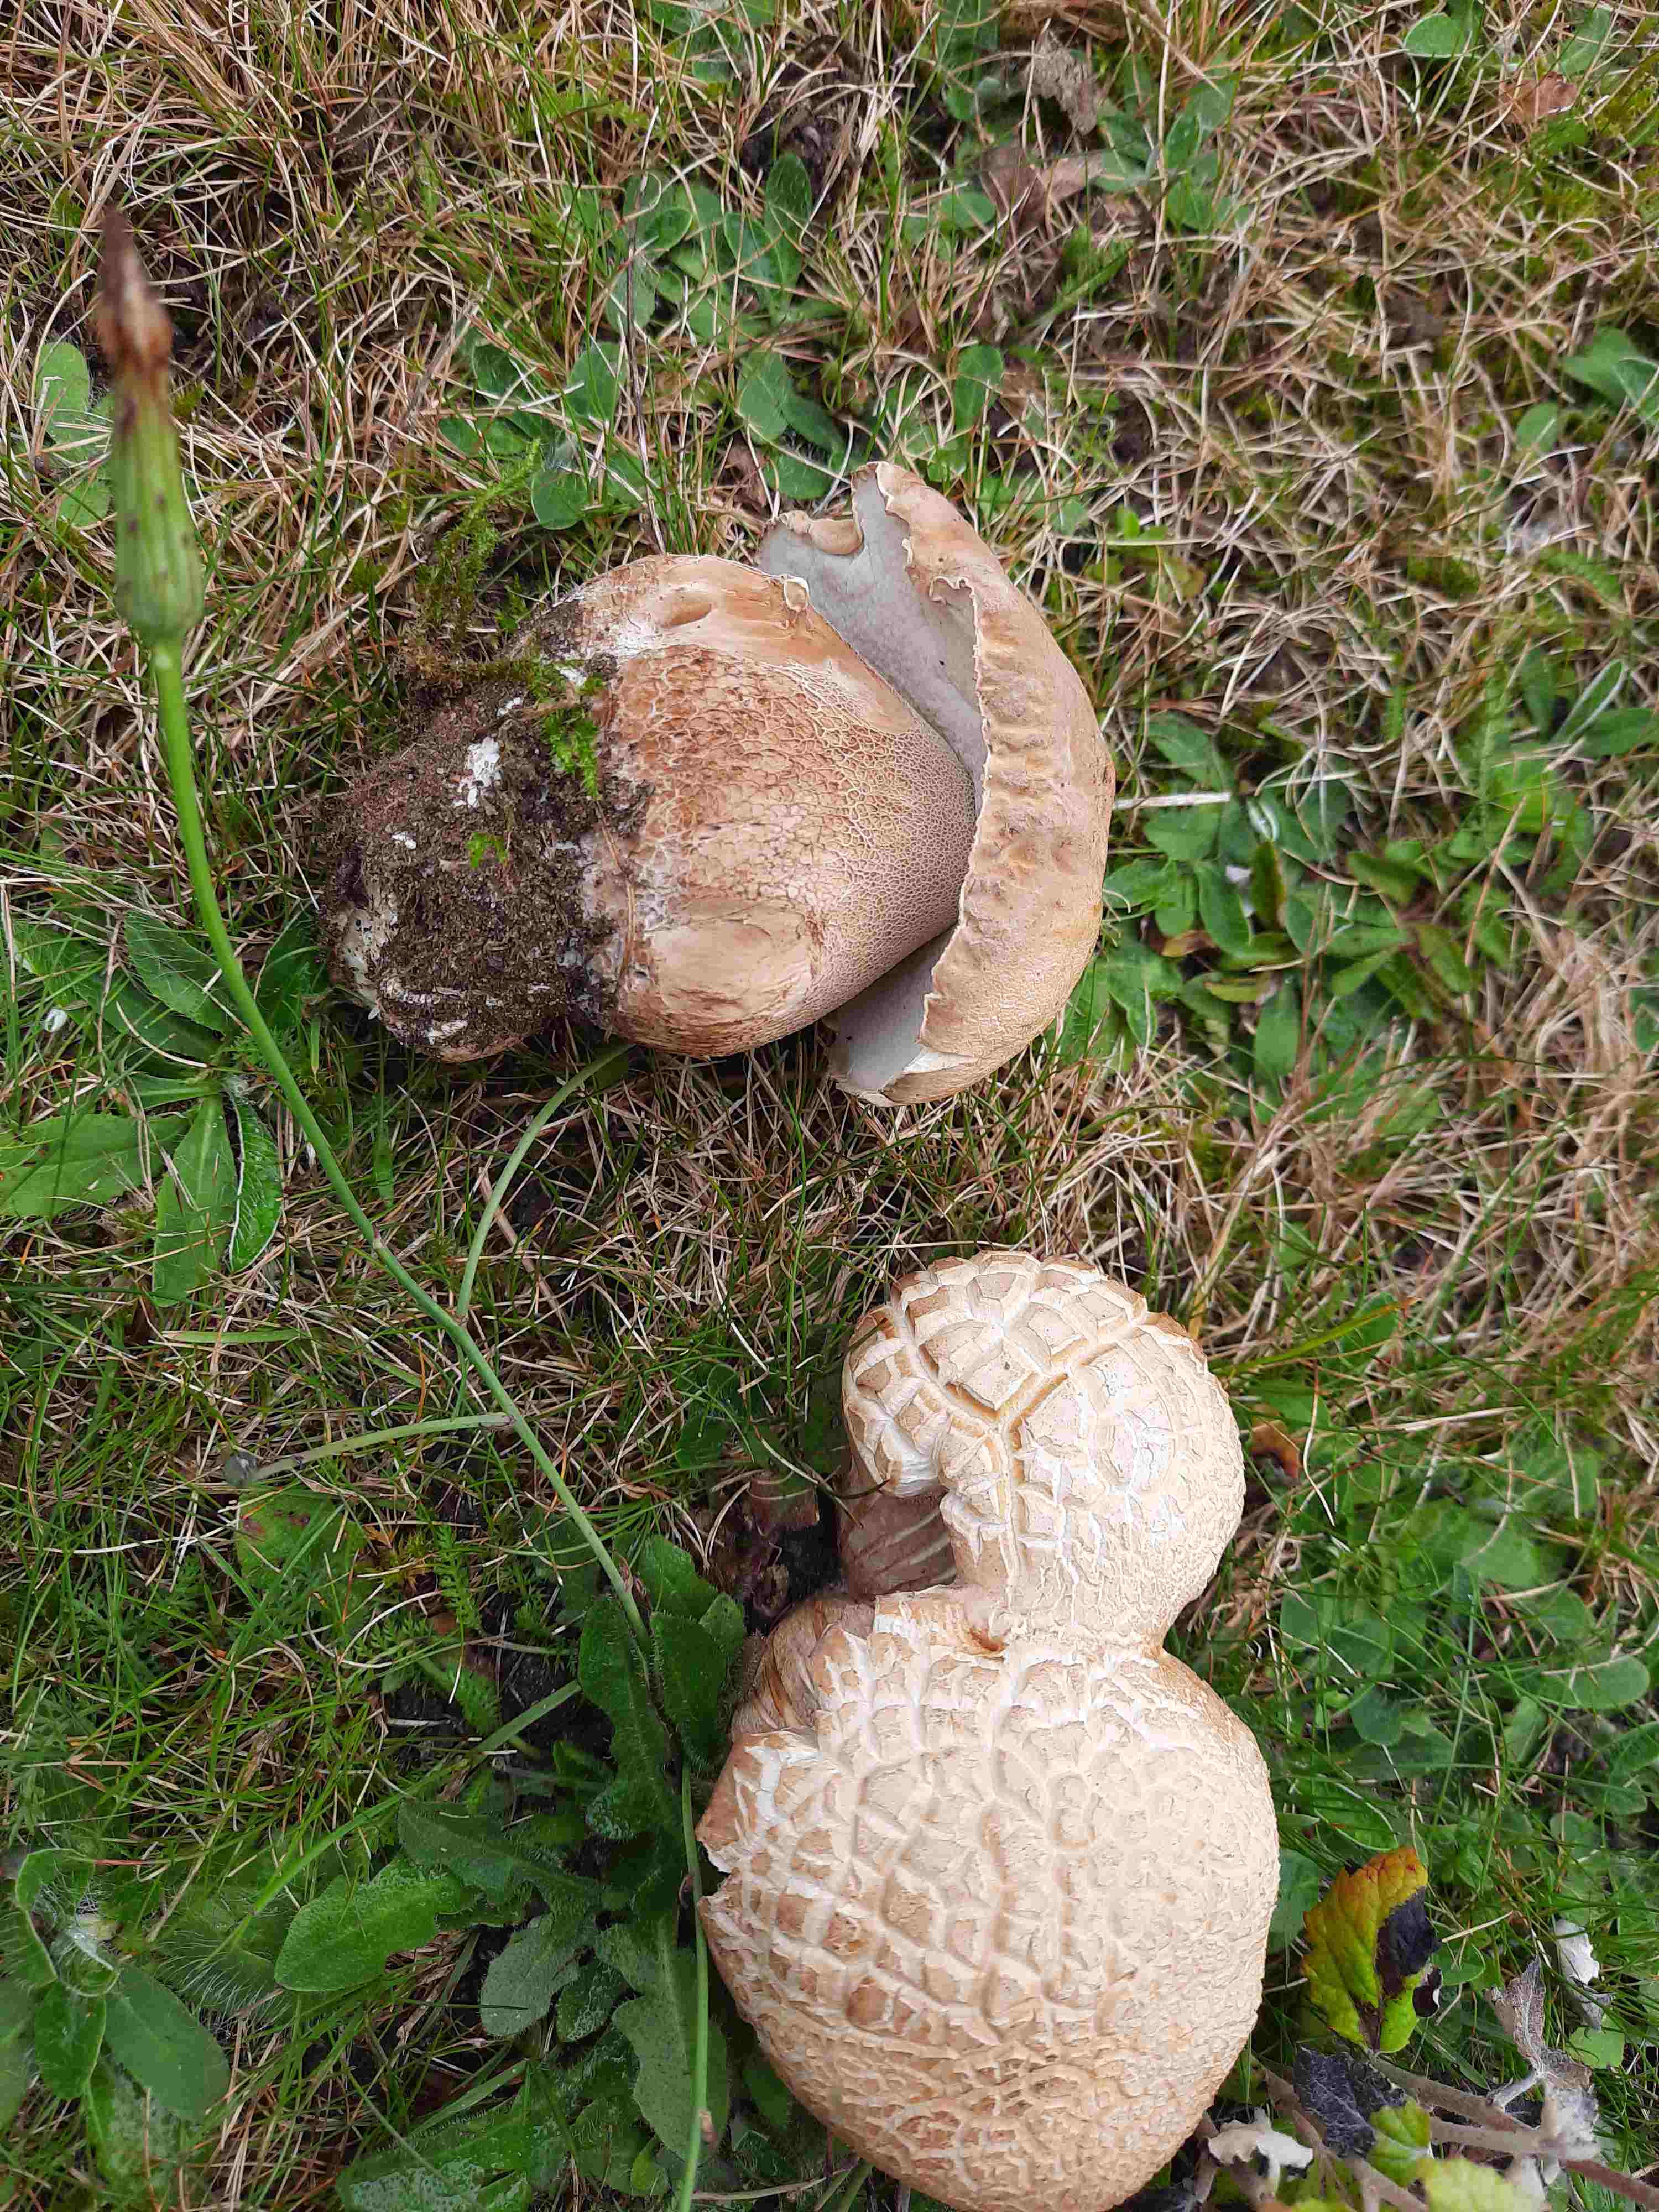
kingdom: Fungi
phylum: Basidiomycota
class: Agaricomycetes
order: Boletales
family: Boletaceae
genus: Boletus
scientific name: Boletus reticulatus
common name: sommer-rørhat
